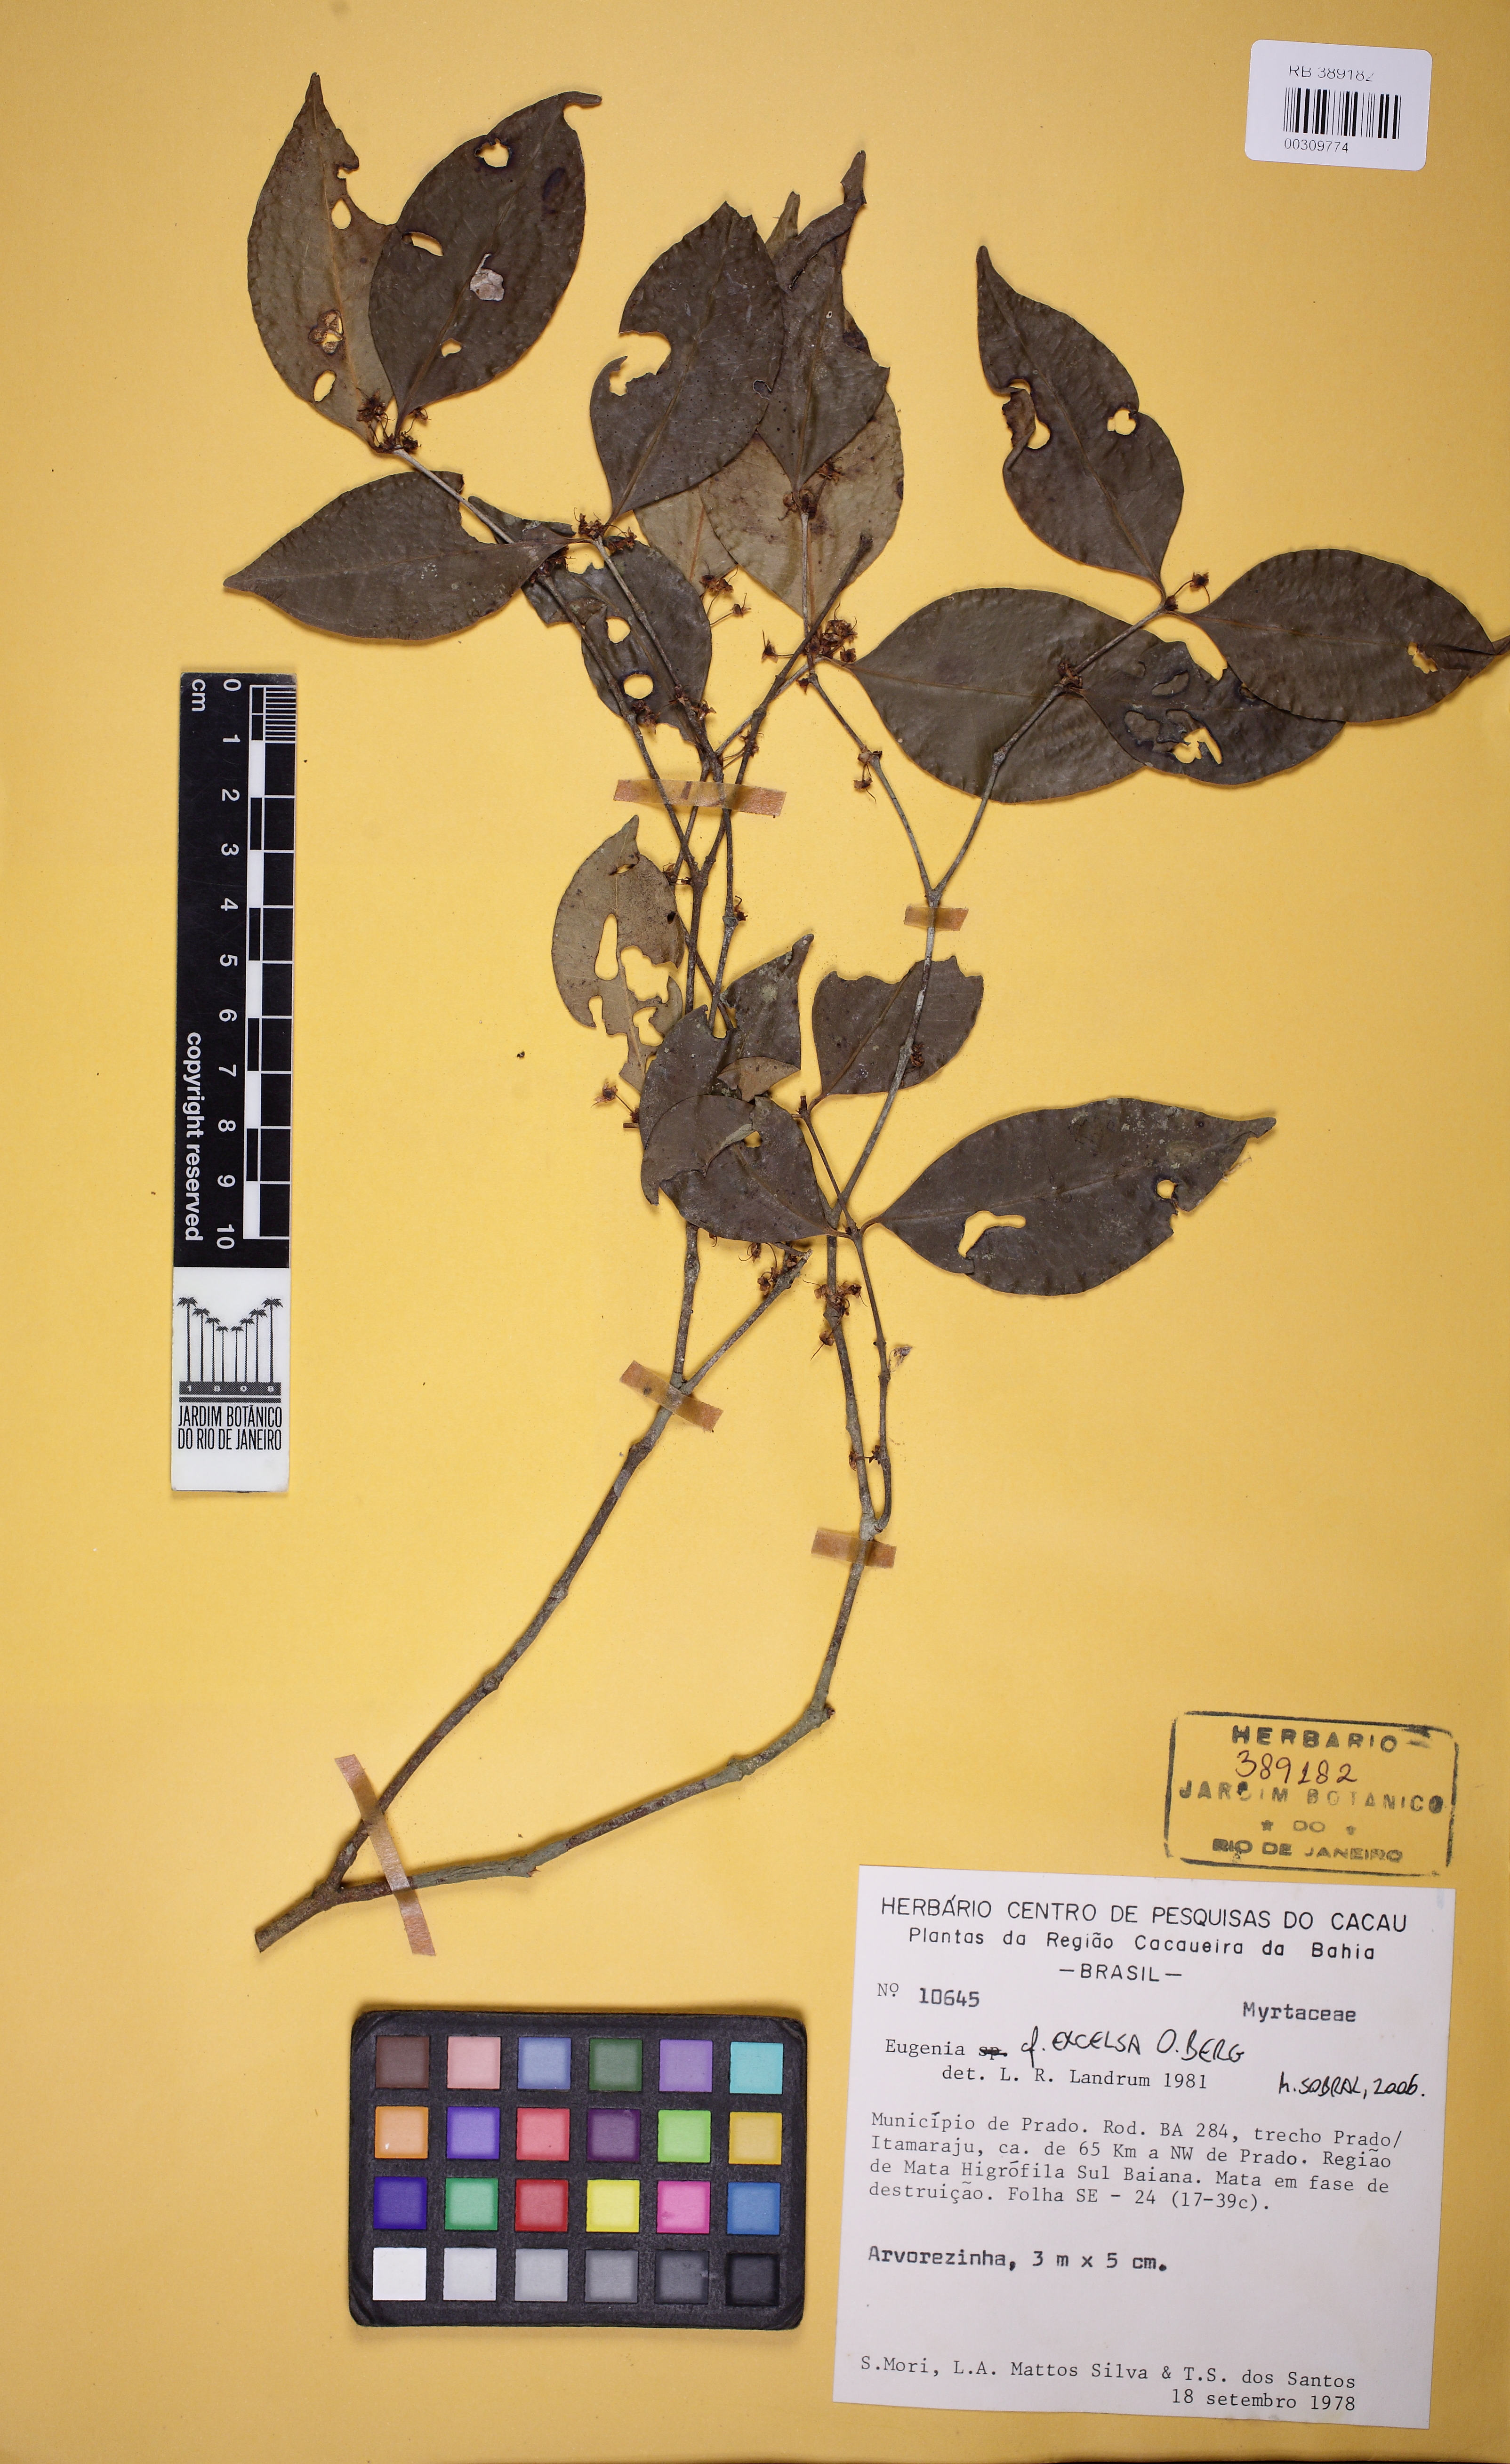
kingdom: Plantae
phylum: Tracheophyta
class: Magnoliopsida
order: Myrtales
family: Myrtaceae
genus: Eugenia
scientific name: Eugenia excelsa
